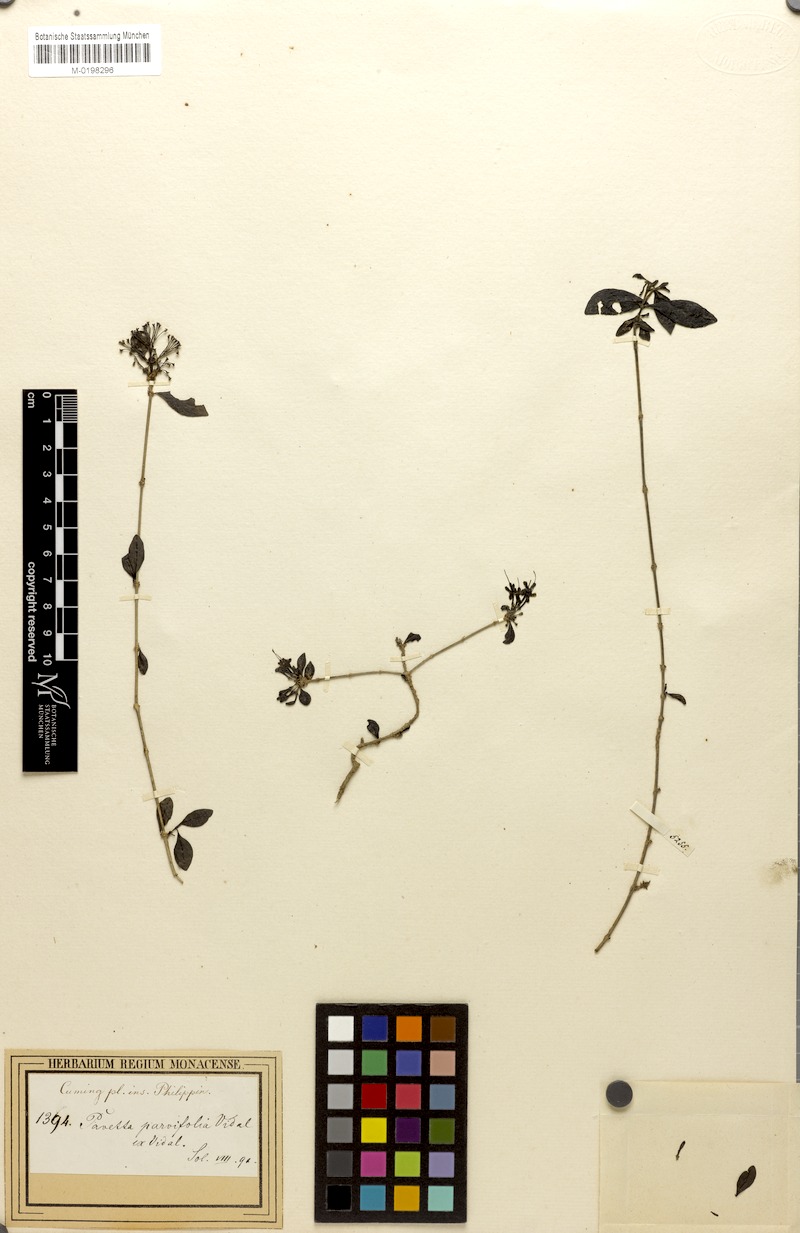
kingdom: Plantae
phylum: Tracheophyta
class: Magnoliopsida
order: Gentianales
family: Rubiaceae
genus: Pavetta
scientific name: Pavetta parvifolia
